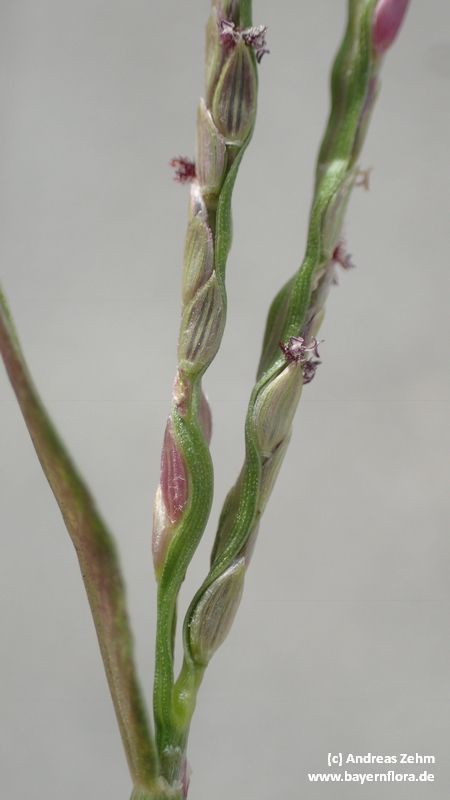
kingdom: Plantae
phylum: Tracheophyta
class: Liliopsida
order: Poales
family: Poaceae
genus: Digitaria
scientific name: Digitaria ischaemum
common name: Smooth crabgrass
